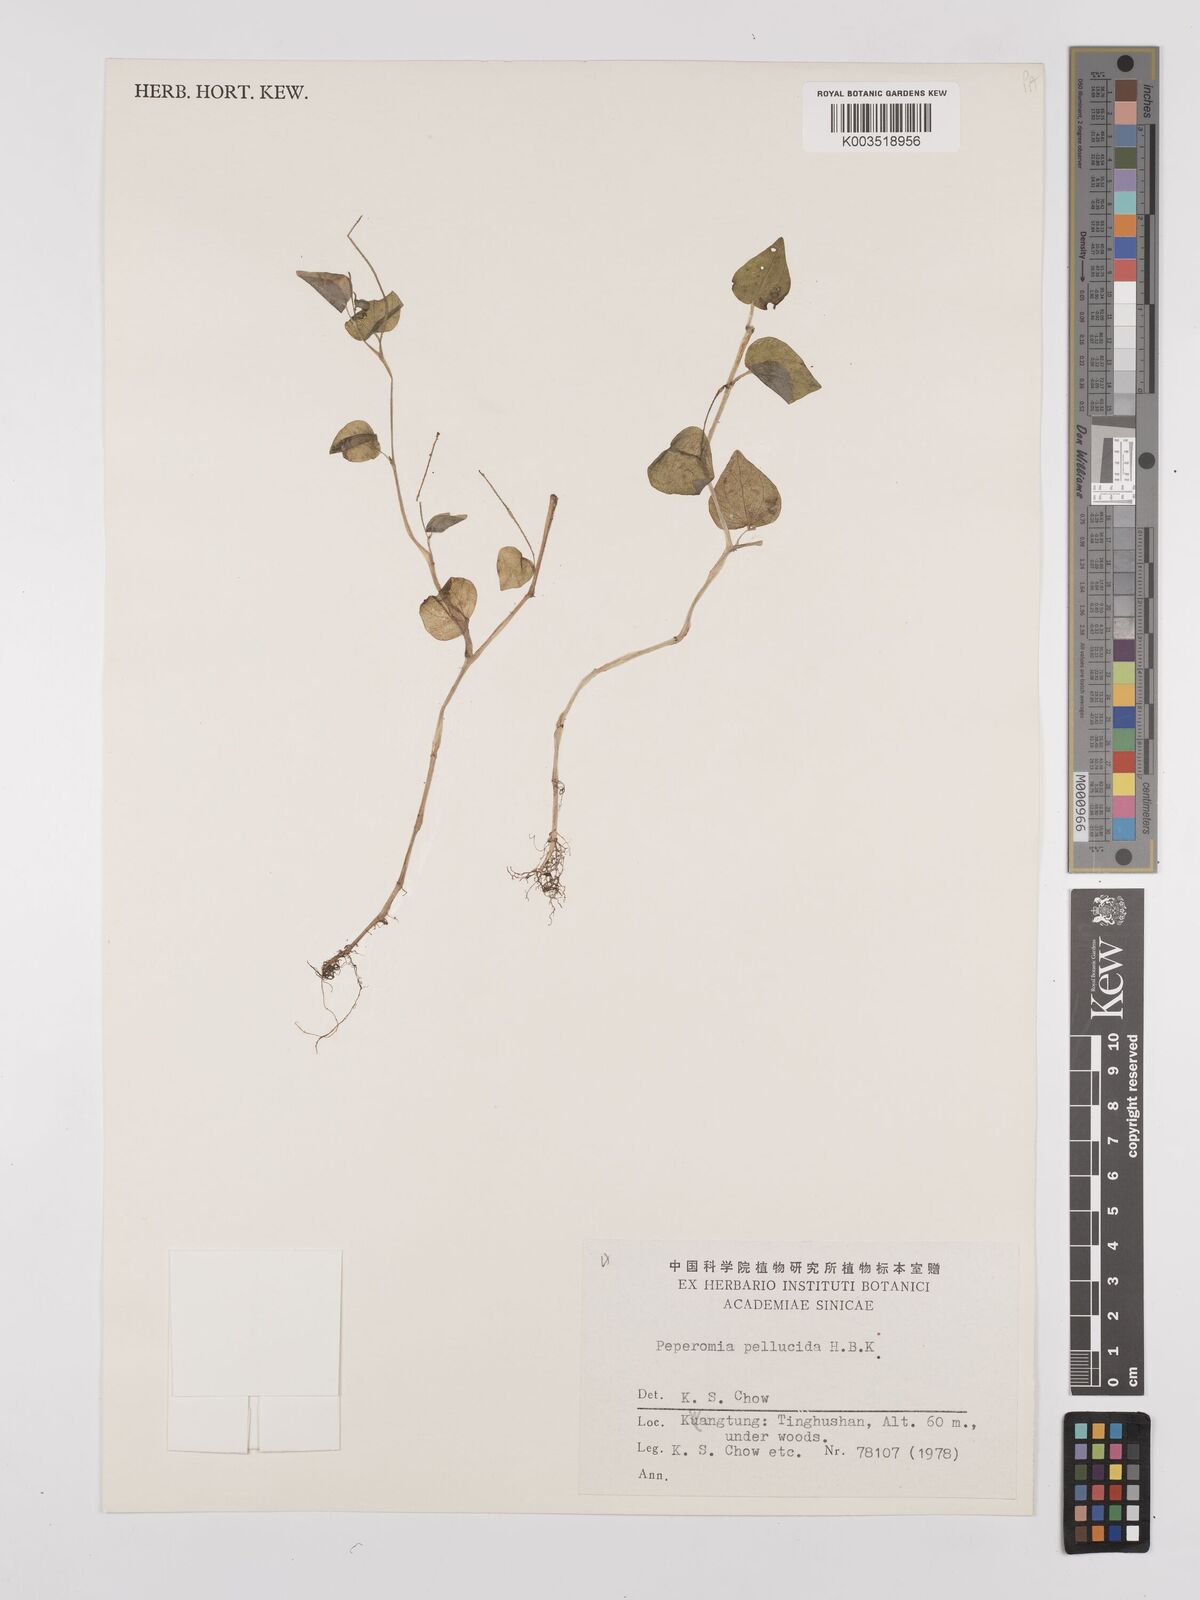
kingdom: Plantae
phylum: Tracheophyta
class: Magnoliopsida
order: Piperales
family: Piperaceae
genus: Peperomia
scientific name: Peperomia pellucida
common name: Man to man
